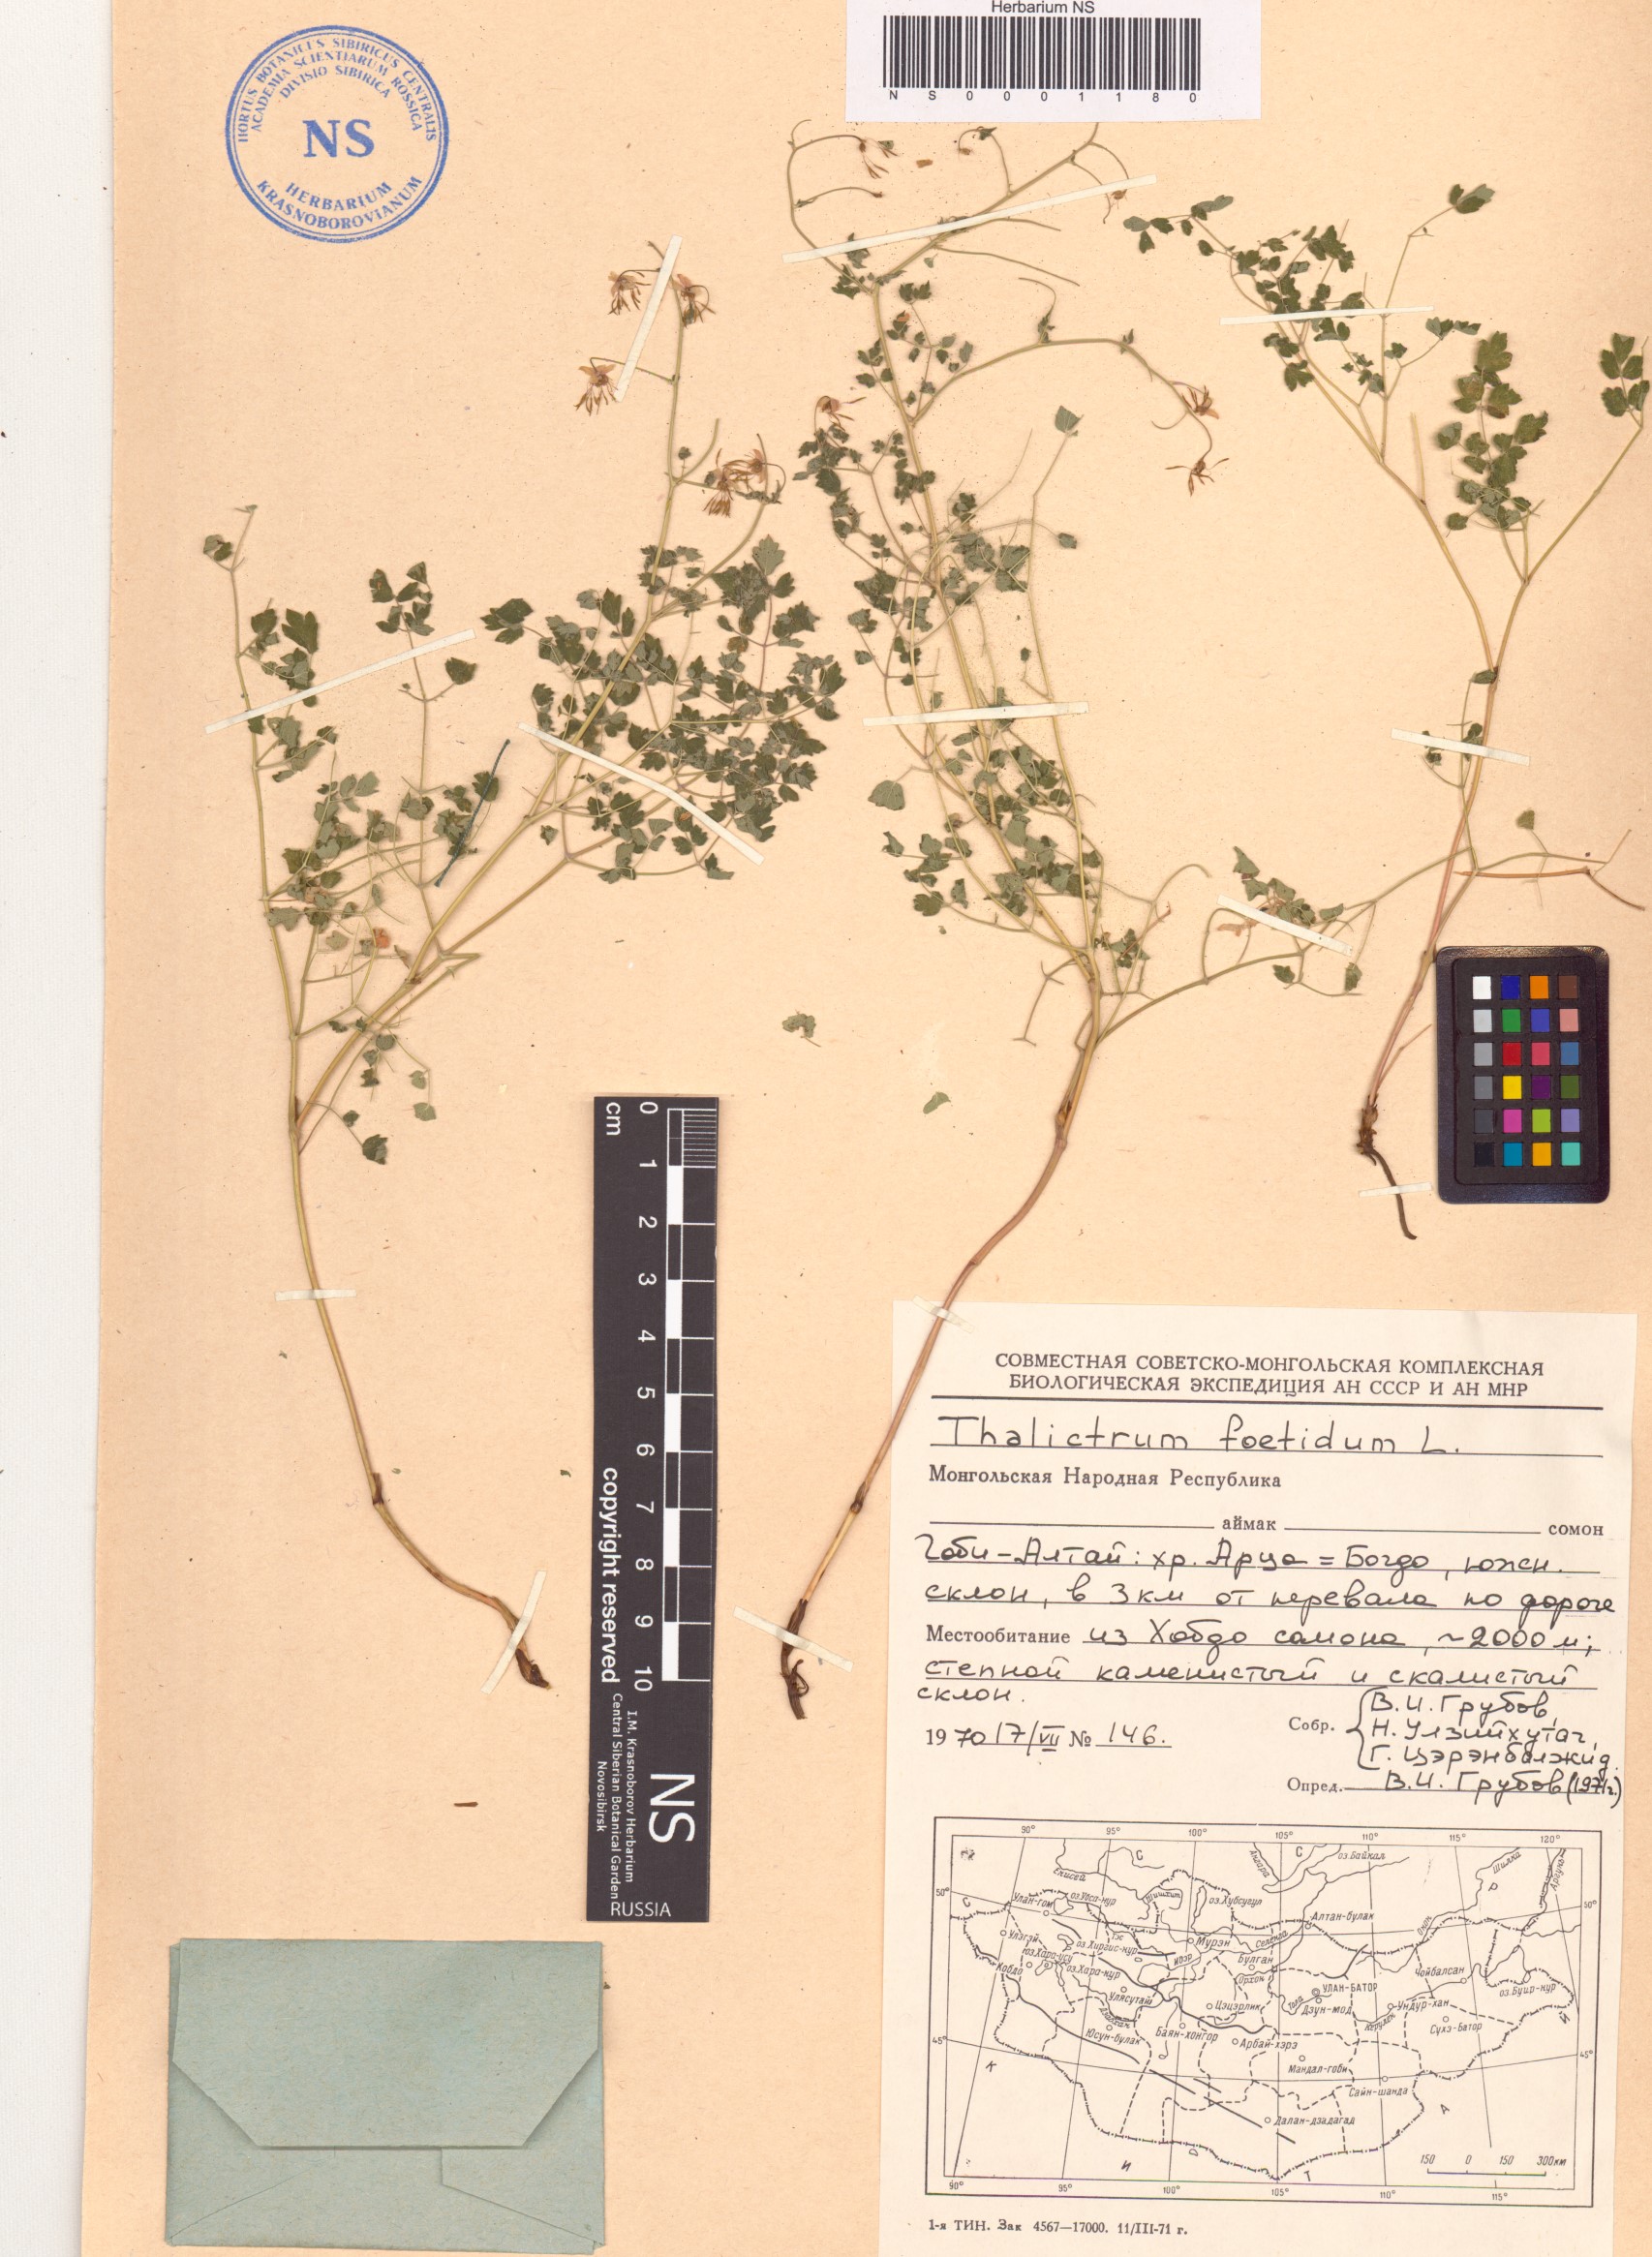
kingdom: Plantae
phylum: Tracheophyta
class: Magnoliopsida
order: Ranunculales
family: Ranunculaceae
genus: Thalictrum
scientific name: Thalictrum foetidum
